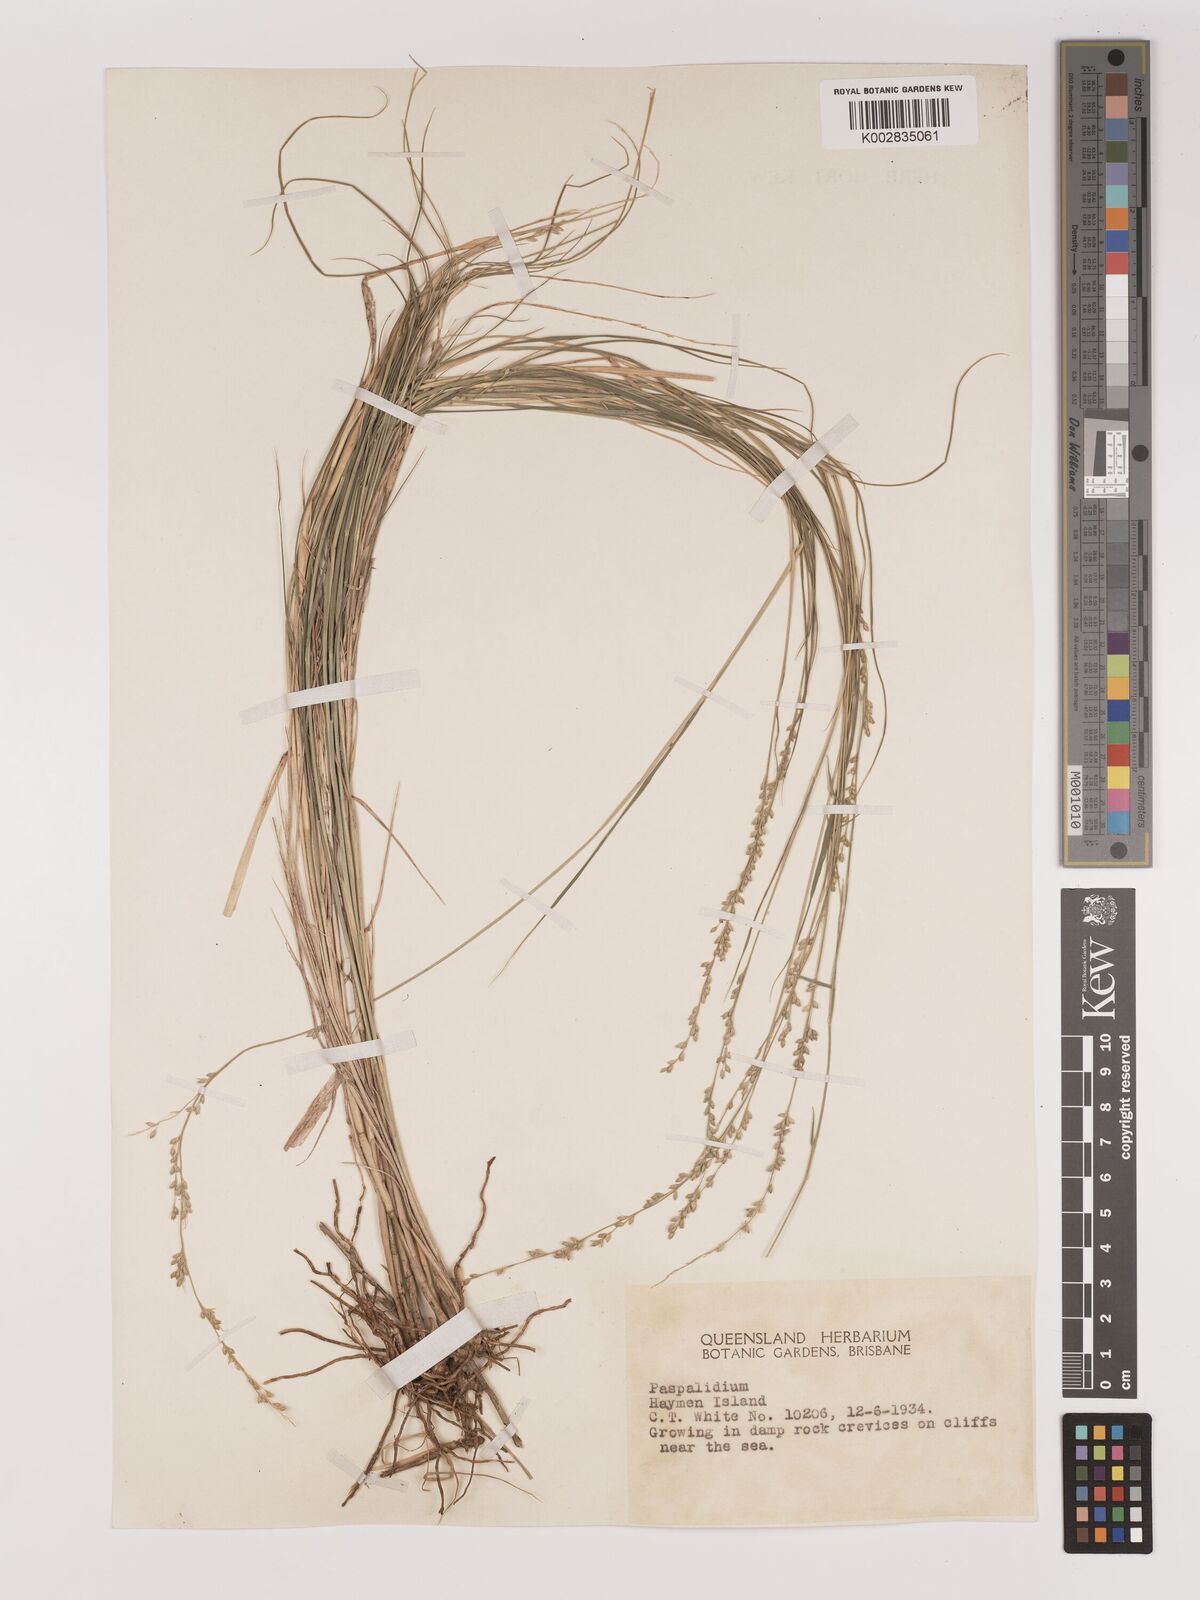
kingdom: Plantae
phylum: Tracheophyta
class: Liliopsida
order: Poales
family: Poaceae
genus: Setaria
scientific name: Setaria
